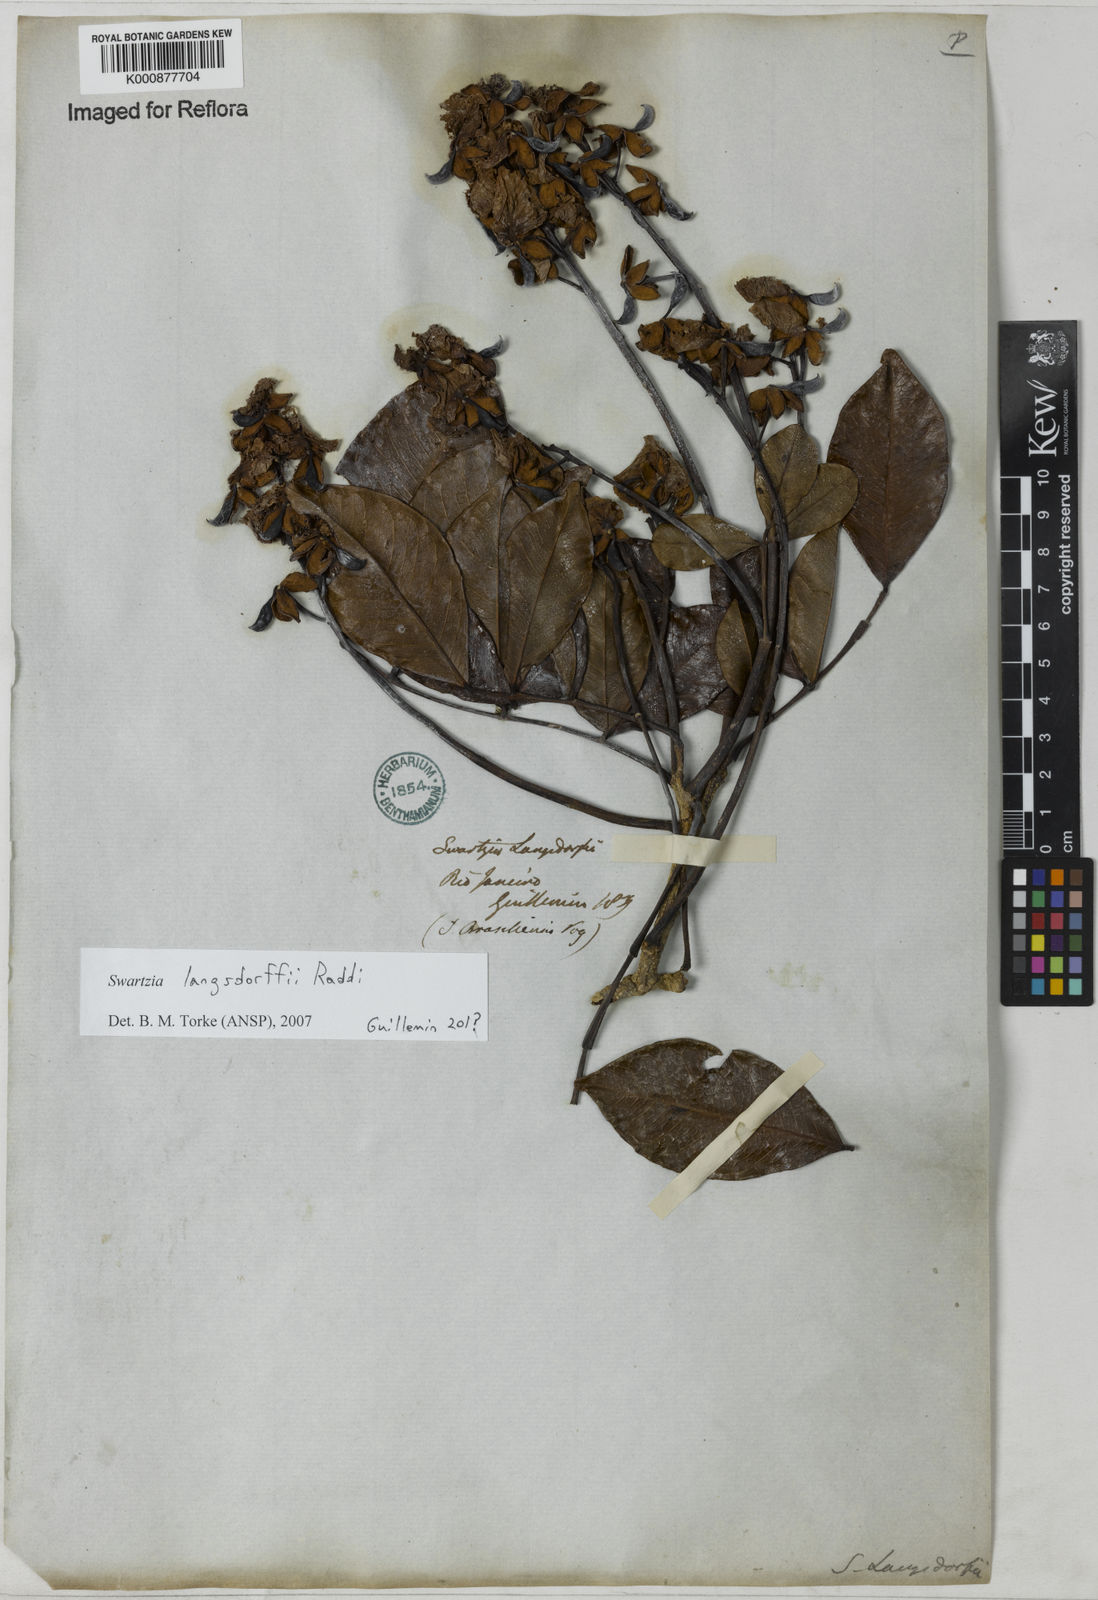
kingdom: Plantae
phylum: Tracheophyta
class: Magnoliopsida
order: Fabales
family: Fabaceae
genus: Swartzia
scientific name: Swartzia langsdorffii
